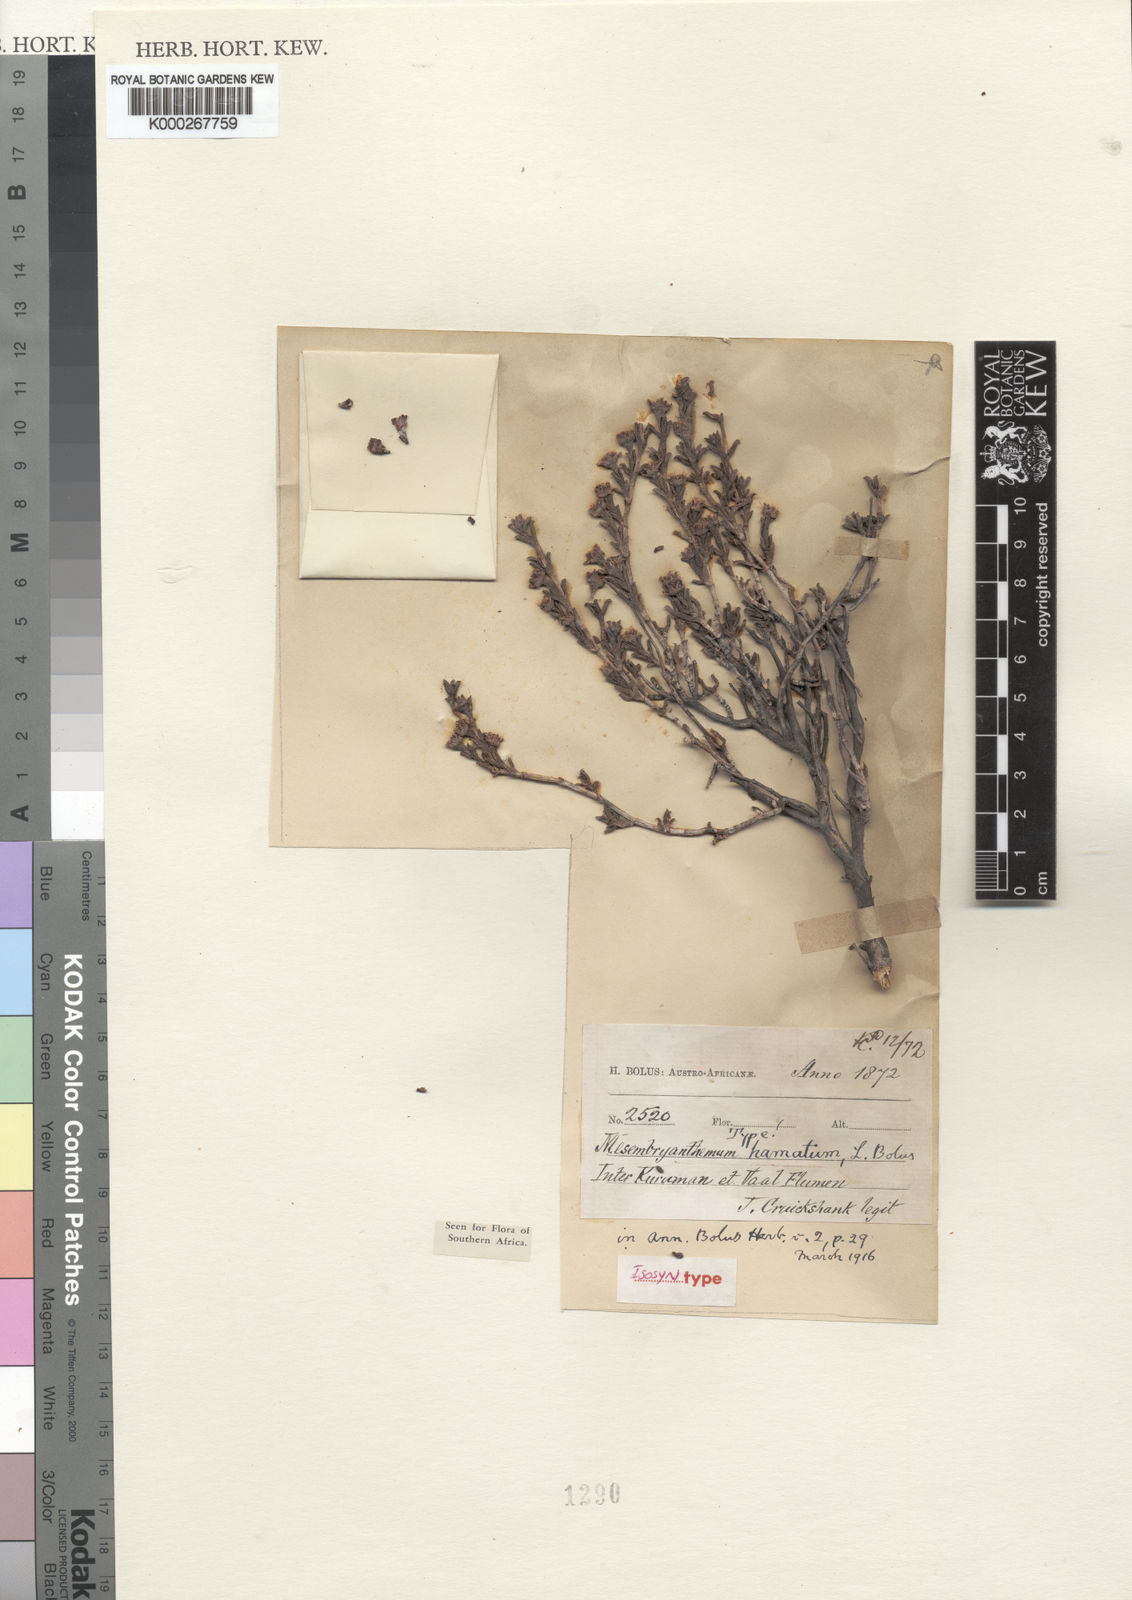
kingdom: Plantae
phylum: Tracheophyta
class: Magnoliopsida
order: Caryophyllales
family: Aizoaceae
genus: Ruschia
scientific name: Ruschia hamata
